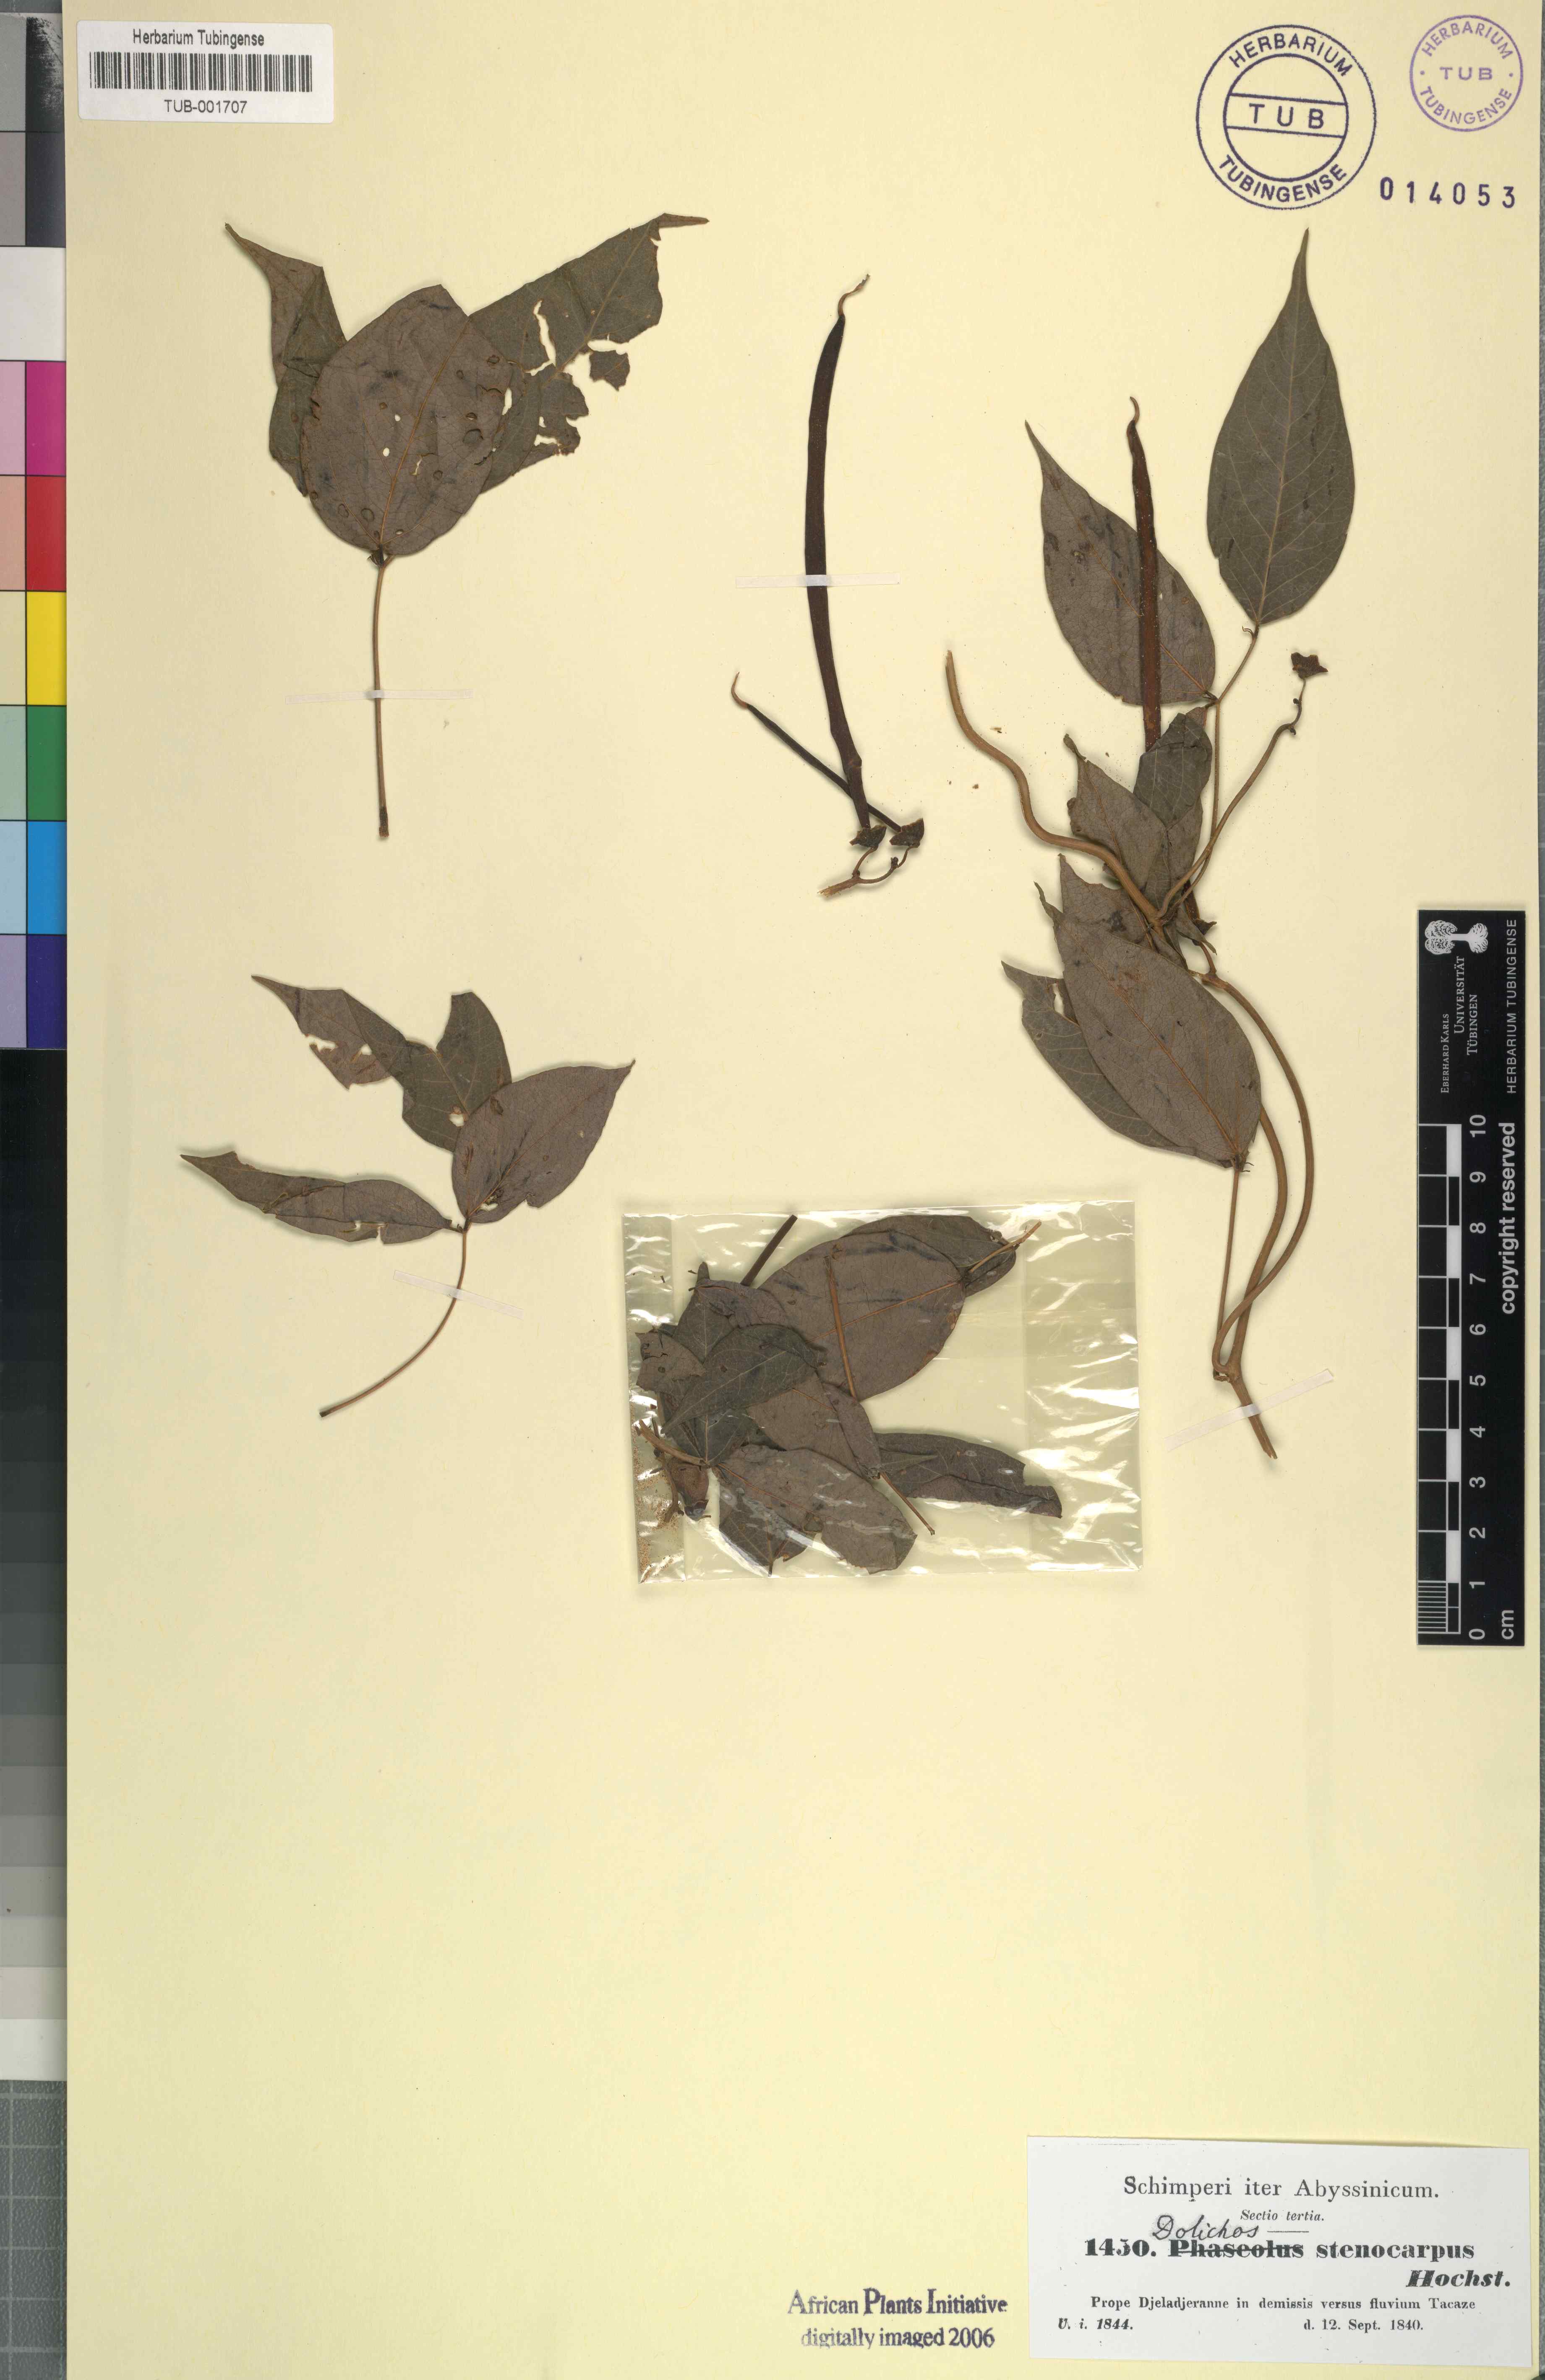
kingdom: Plantae
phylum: Tracheophyta
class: Magnoliopsida
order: Fabales
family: Fabaceae
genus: Sphenostylis
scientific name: Sphenostylis stenocarpa
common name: Yam-pea
